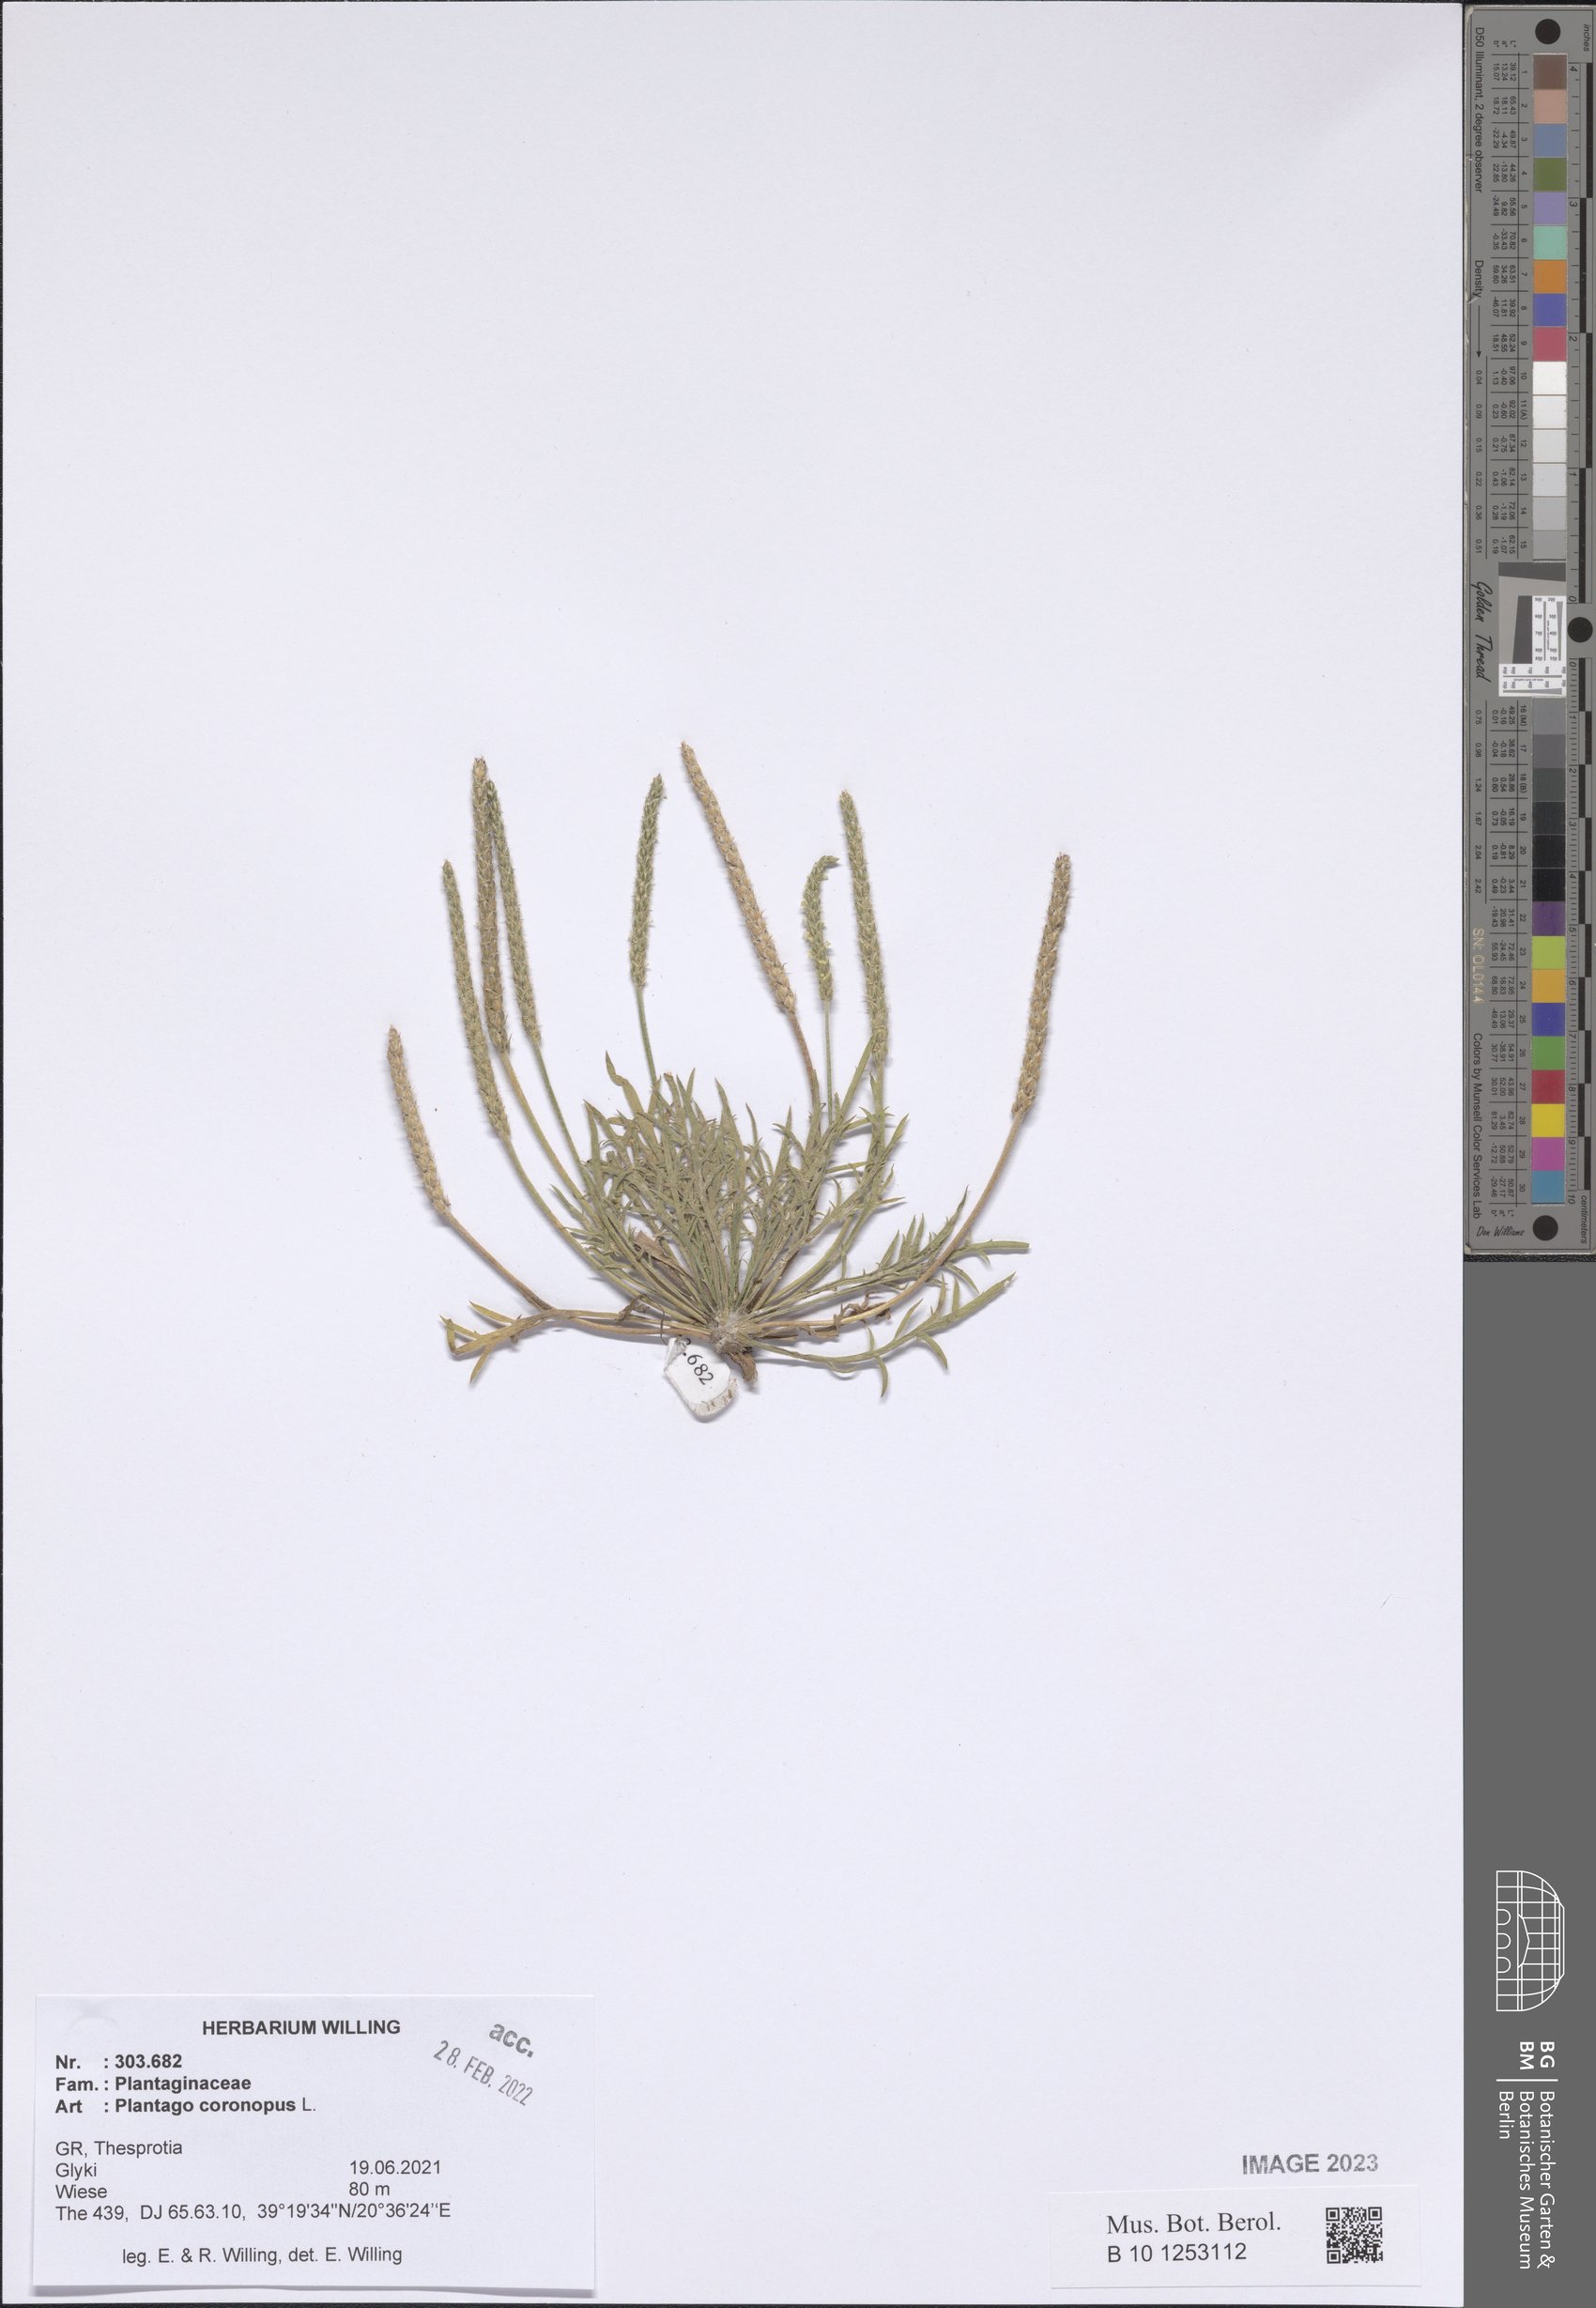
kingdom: Plantae
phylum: Tracheophyta
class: Magnoliopsida
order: Lamiales
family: Plantaginaceae
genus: Plantago
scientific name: Plantago coronopus
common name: Buck's-horn plantain
